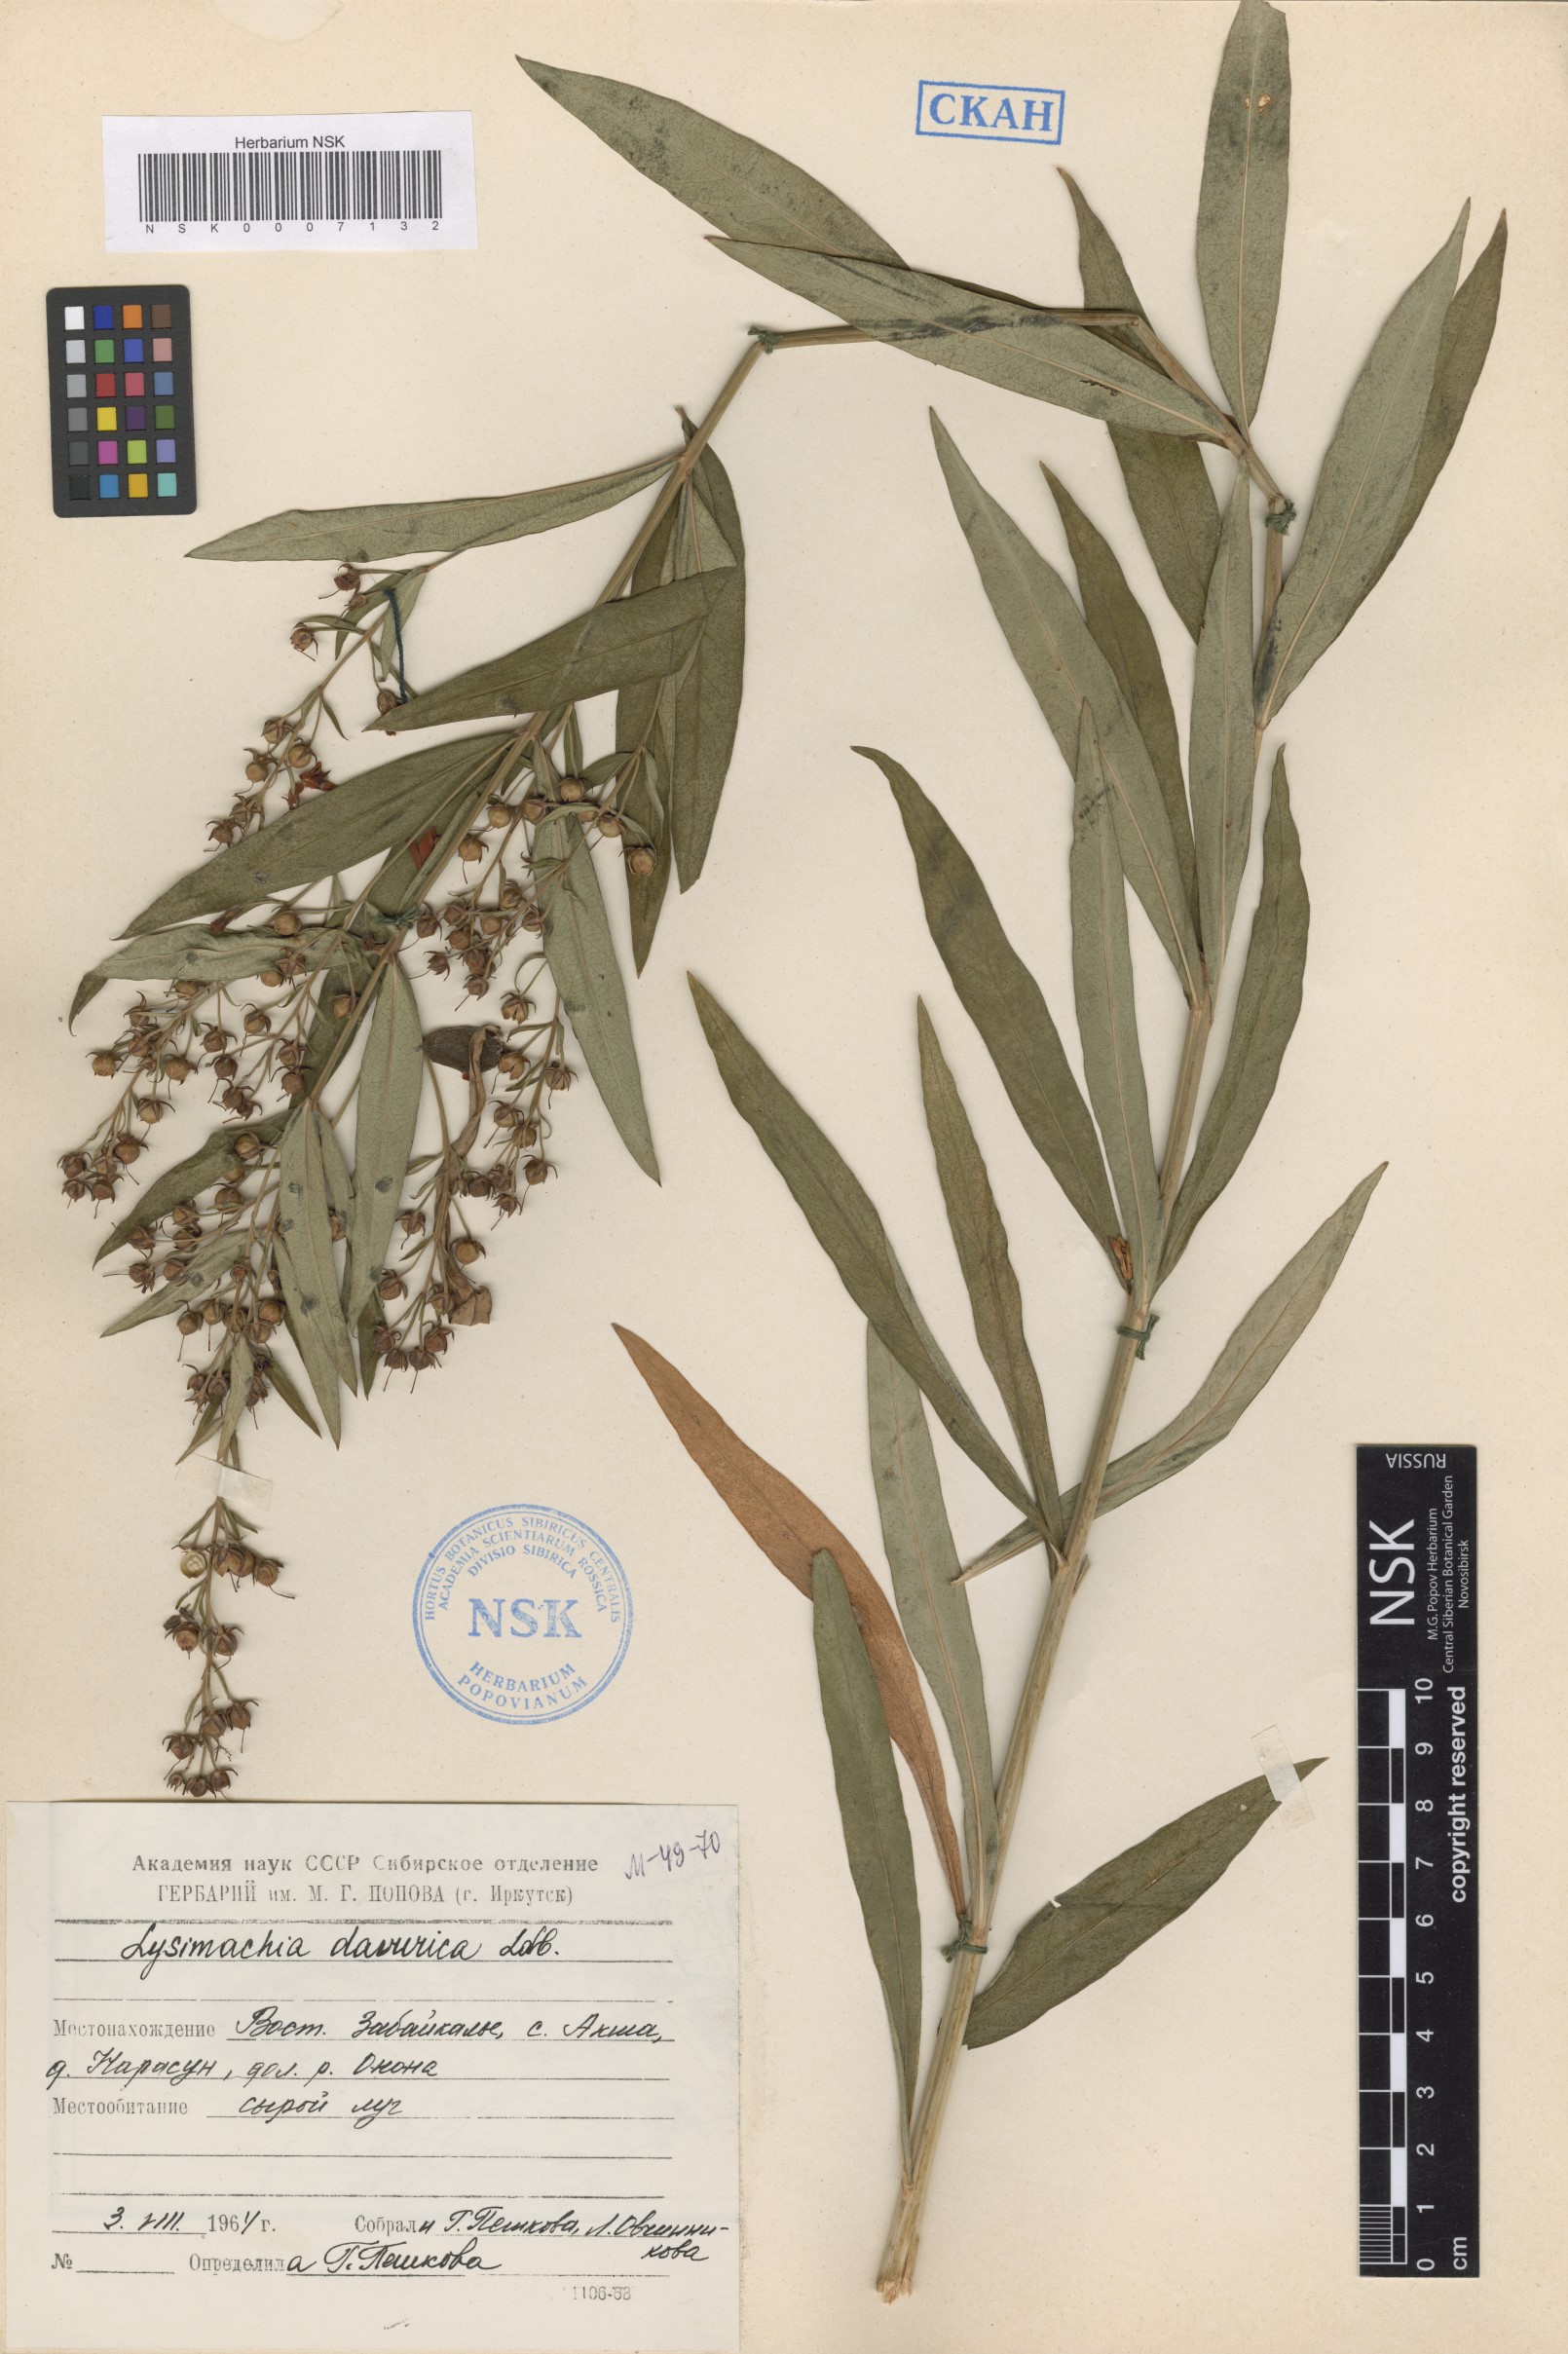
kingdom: Plantae
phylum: Tracheophyta
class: Magnoliopsida
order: Ericales
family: Primulaceae
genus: Lysimachia
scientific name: Lysimachia davurica
